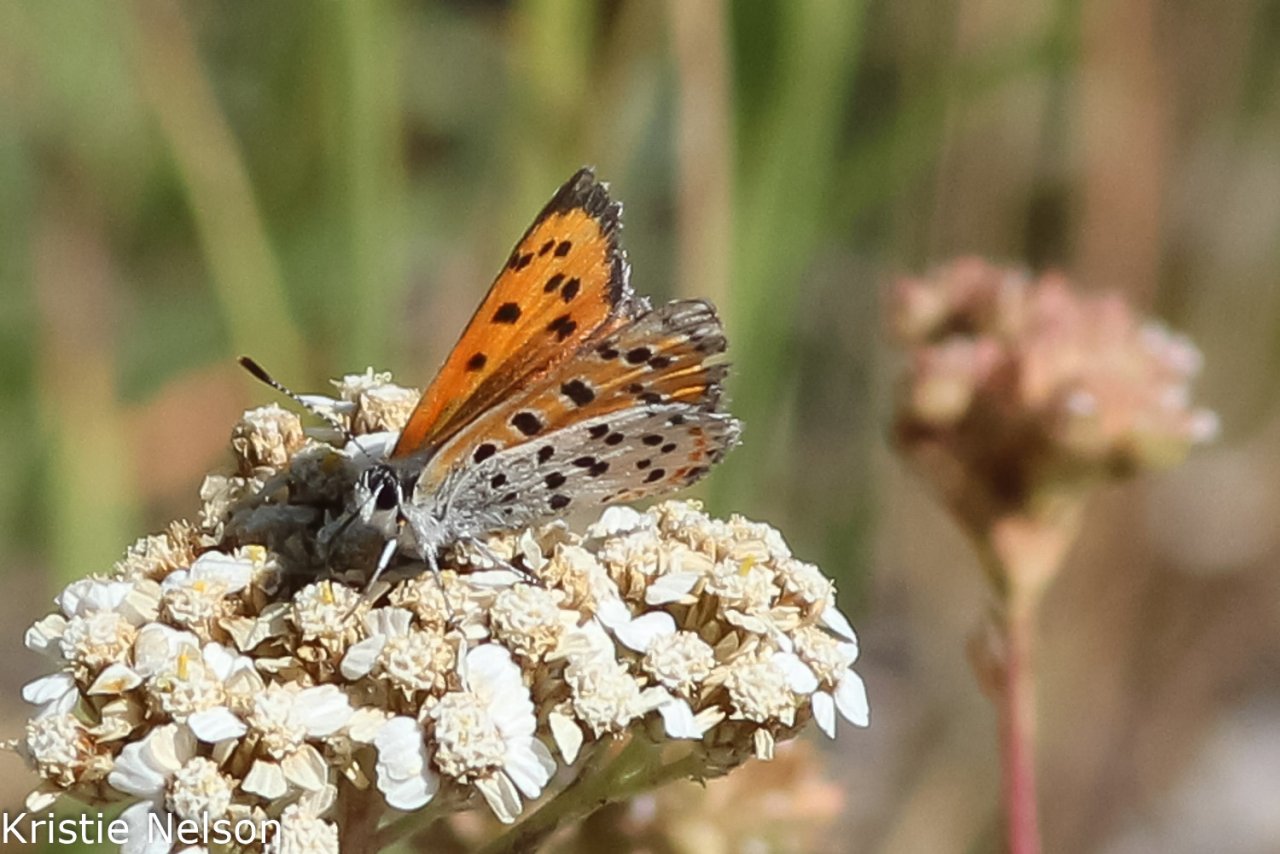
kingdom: Animalia
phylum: Arthropoda
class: Insecta
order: Lepidoptera
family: Lycaenidae
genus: Lycaena
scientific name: Lycaena cupreus
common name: Lustrous Copper
